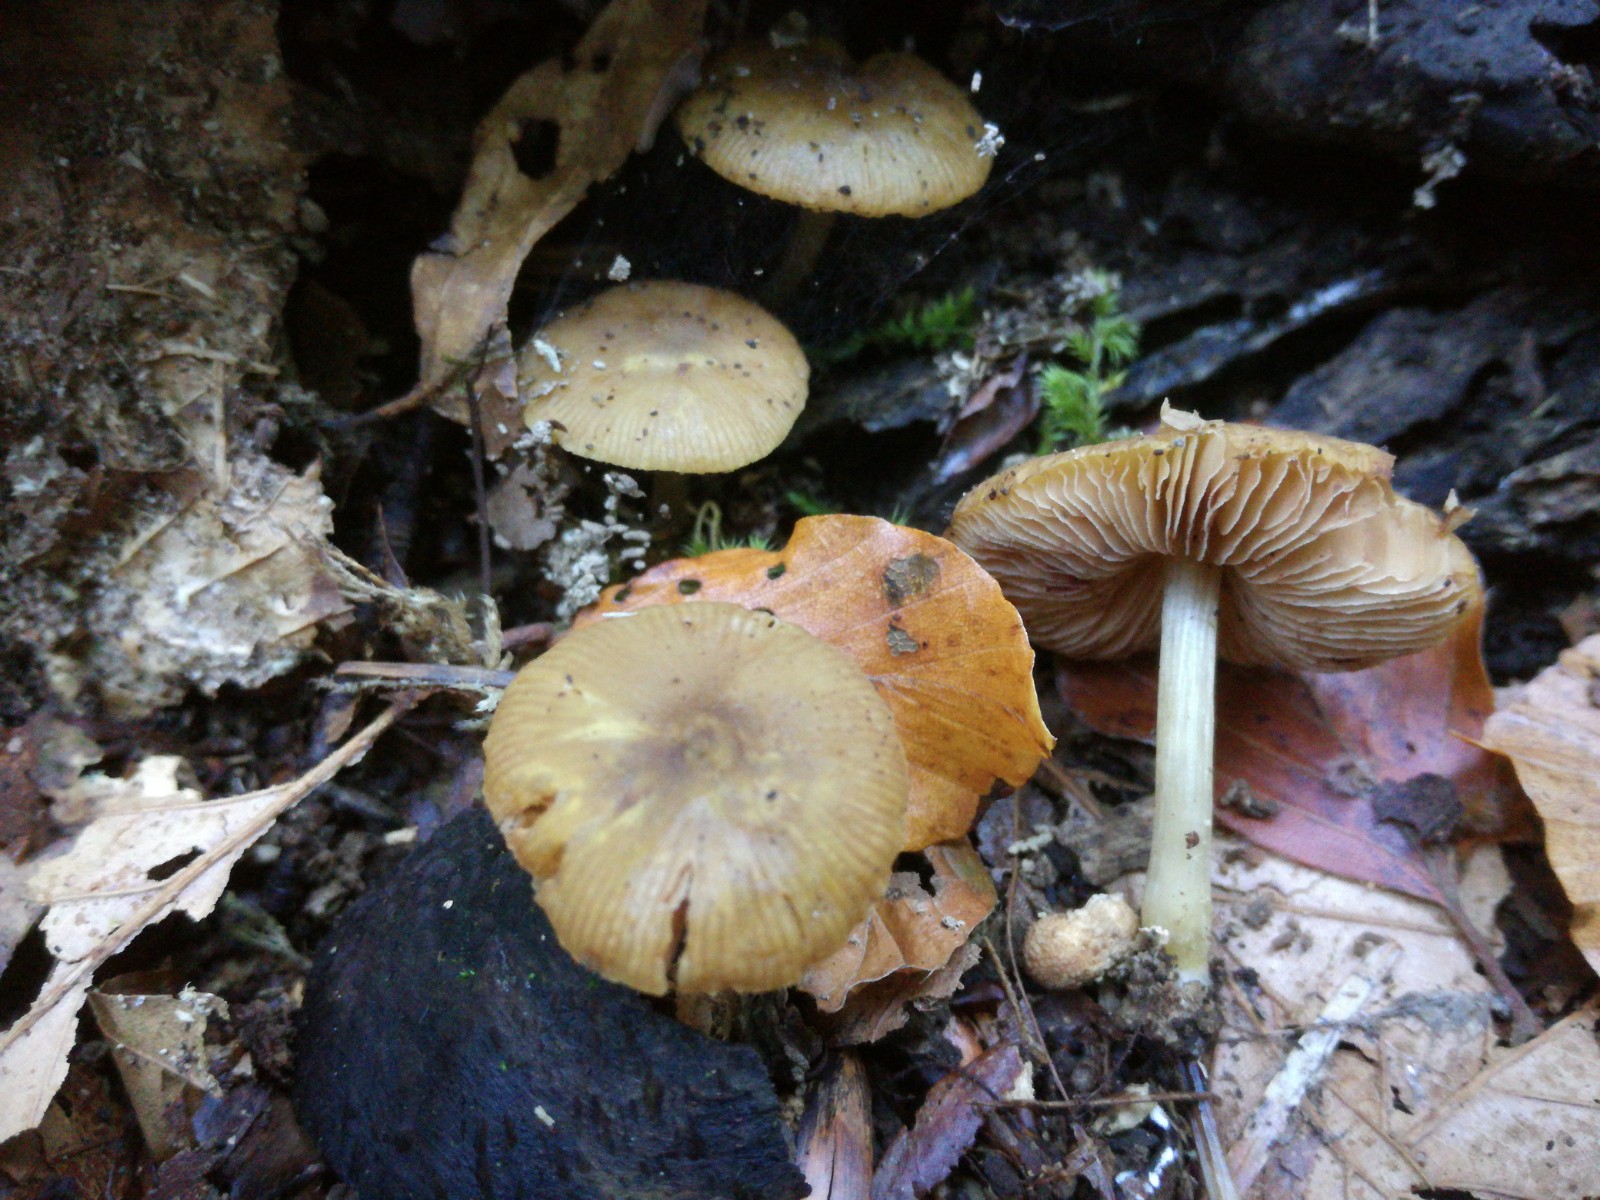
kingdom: Fungi
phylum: Basidiomycota
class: Agaricomycetes
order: Agaricales
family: Pluteaceae
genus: Pluteus
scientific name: Pluteus chrysophlebius
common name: grøngul skærmhat
